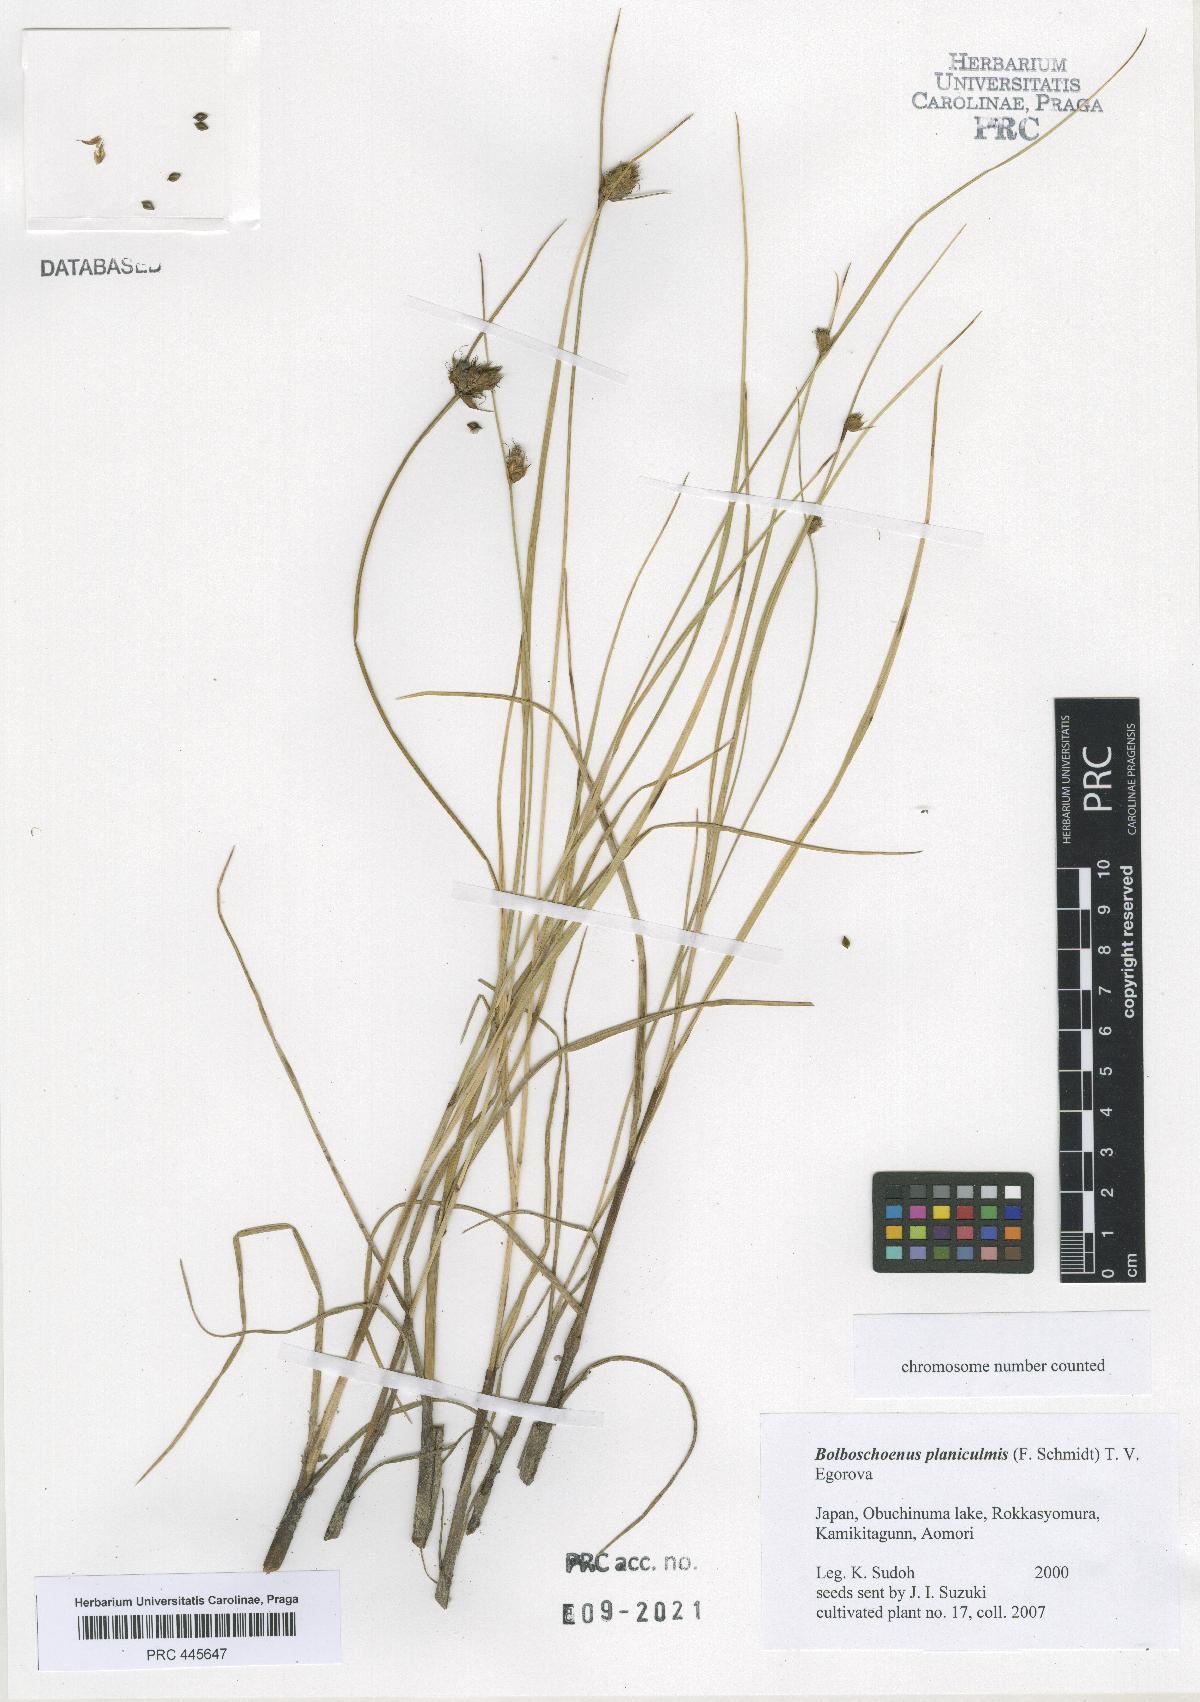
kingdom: Plantae
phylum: Tracheophyta
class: Liliopsida
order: Poales
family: Cyperaceae
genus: Bolboschoenus
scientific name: Bolboschoenus planiculmis
